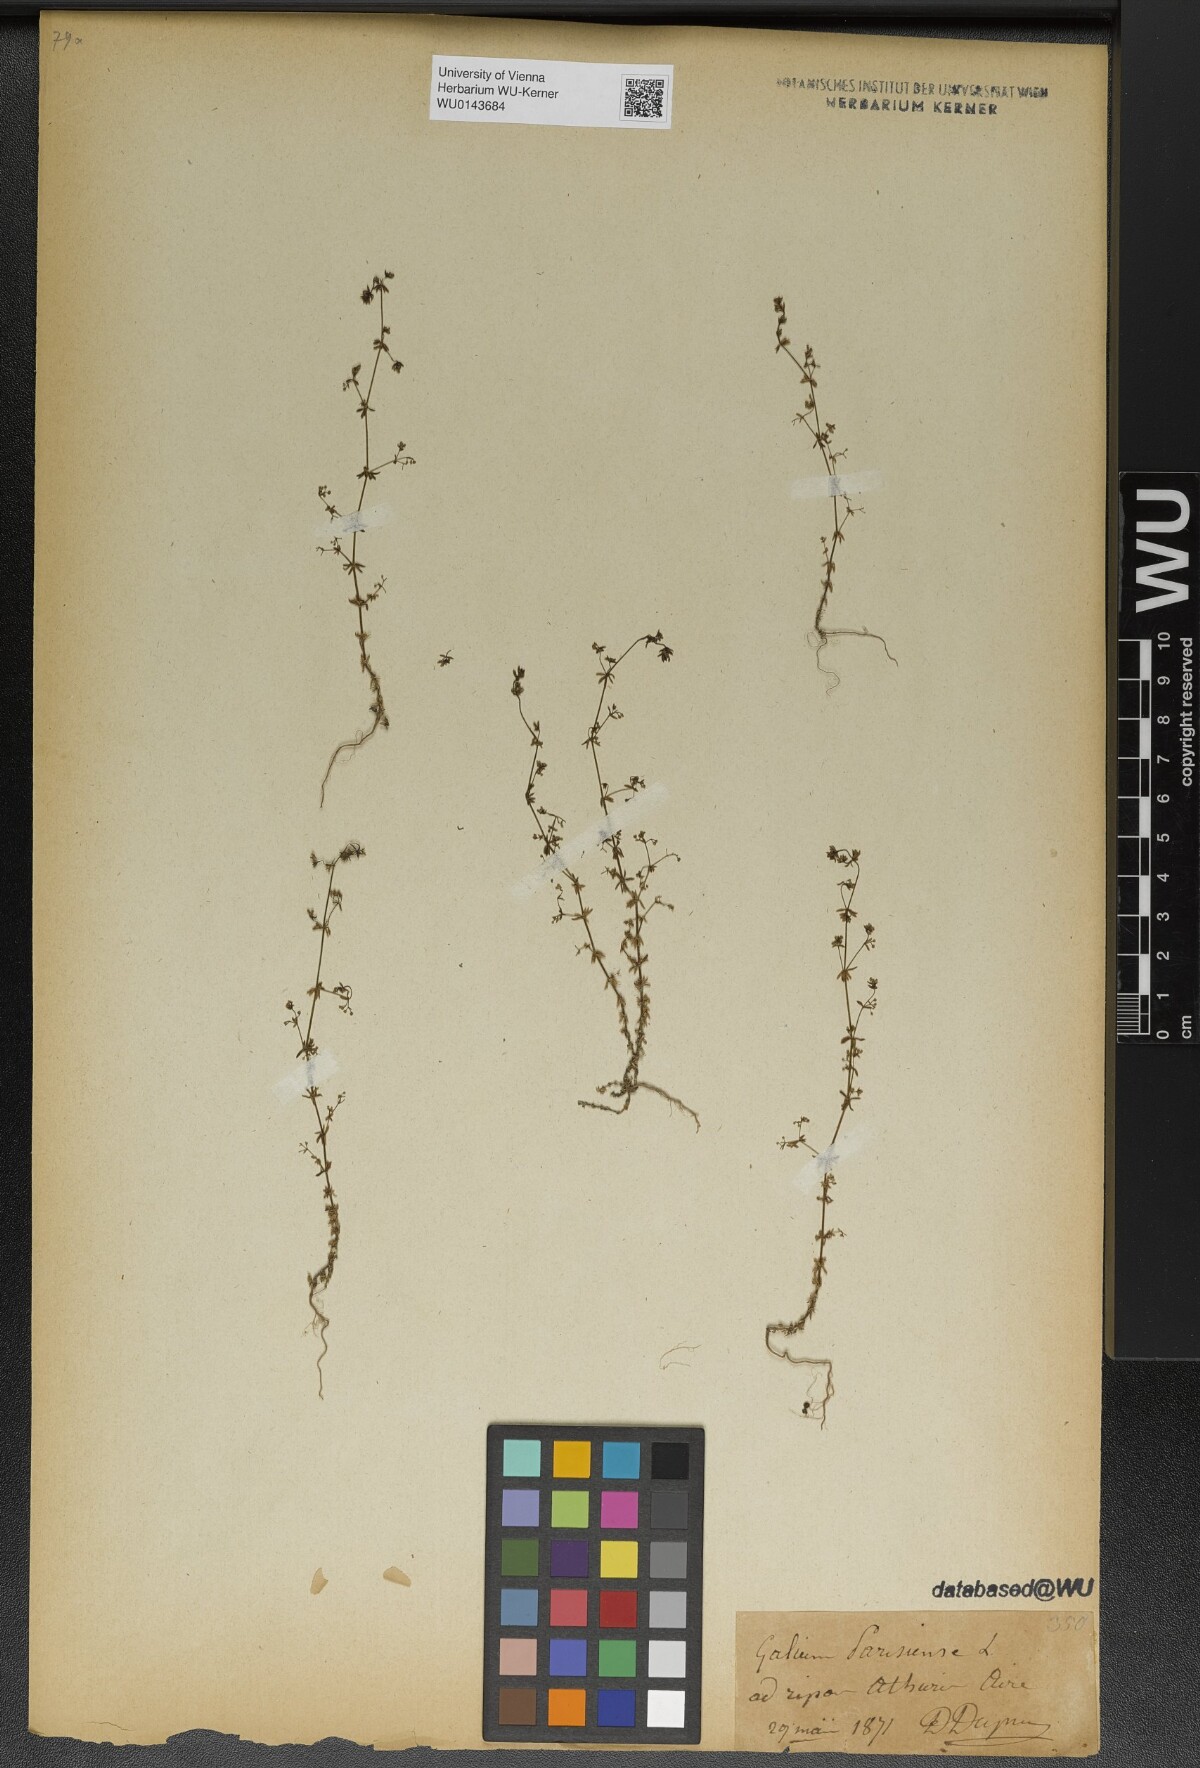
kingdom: Plantae
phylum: Tracheophyta
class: Magnoliopsida
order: Gentianales
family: Rubiaceae
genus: Galium
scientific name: Galium parisiense
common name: Wall bedstraw
